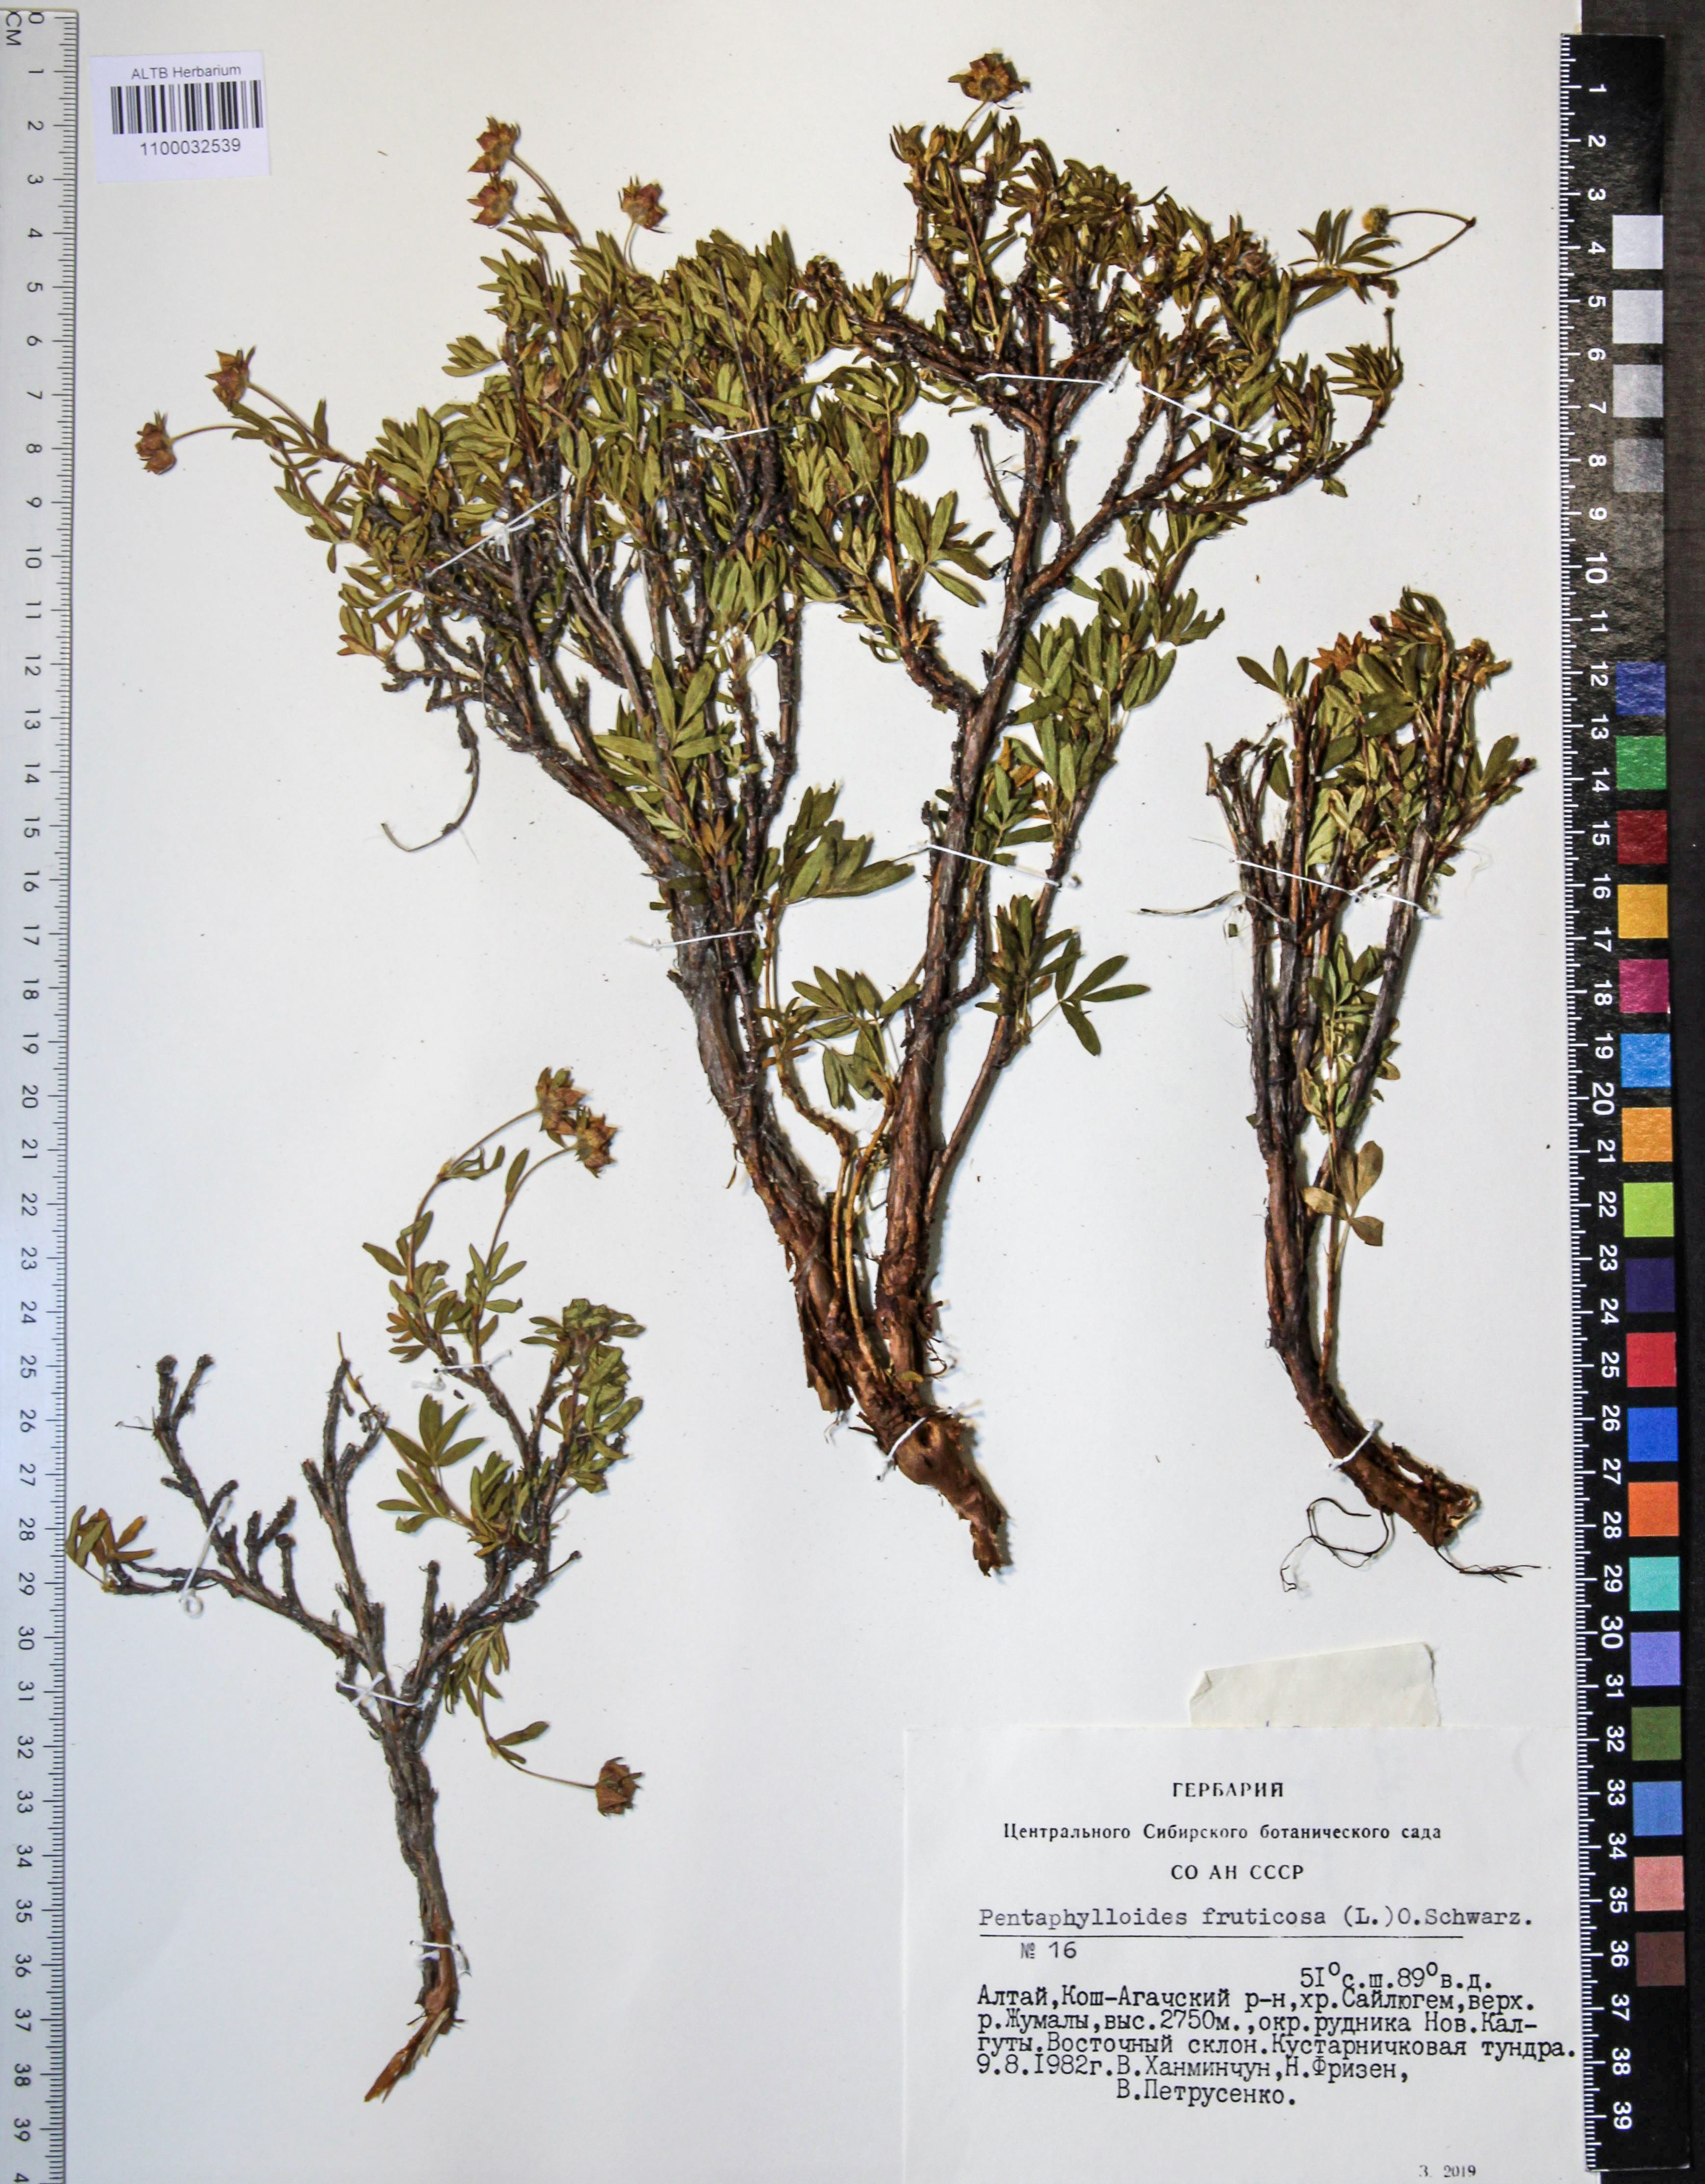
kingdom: Plantae
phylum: Tracheophyta
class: Magnoliopsida
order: Rosales
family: Rosaceae
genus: Dasiphora
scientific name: Dasiphora fruticosa
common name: Shrubby cinquefoil
